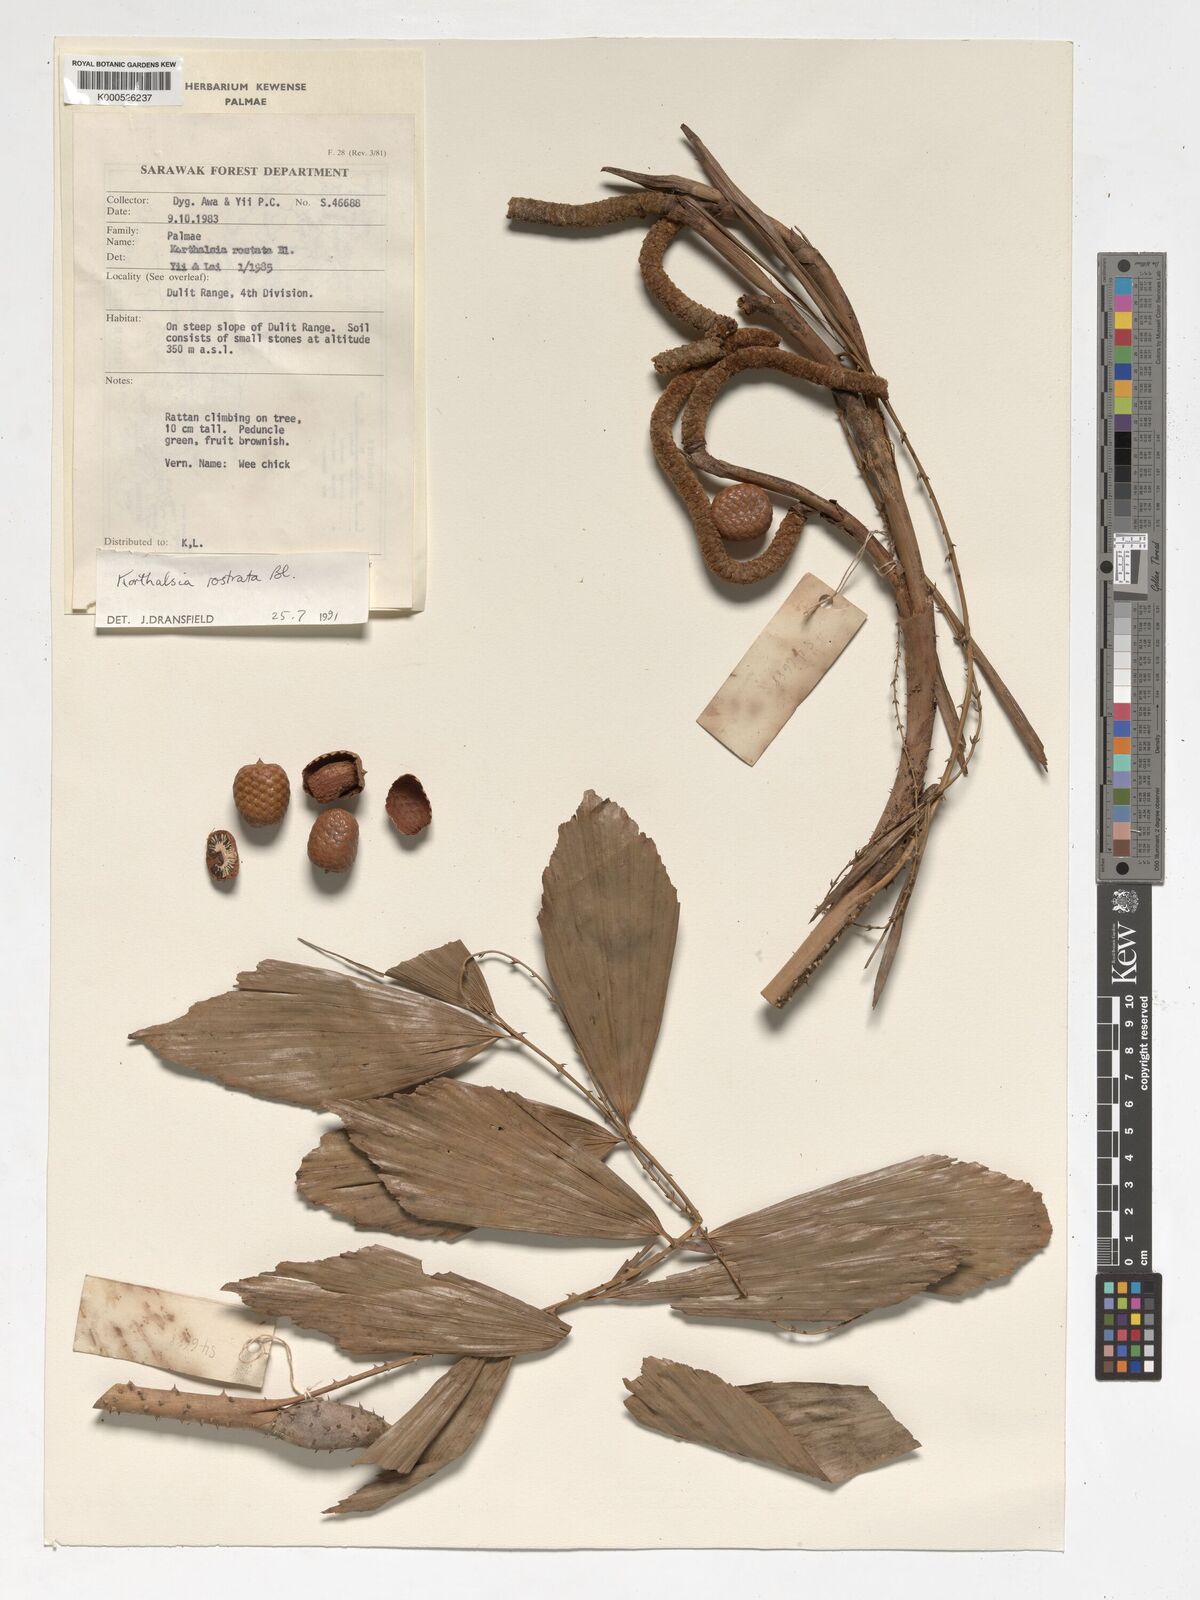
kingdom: Plantae
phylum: Tracheophyta
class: Liliopsida
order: Arecales
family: Arecaceae
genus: Korthalsia
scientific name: Korthalsia rostrata
